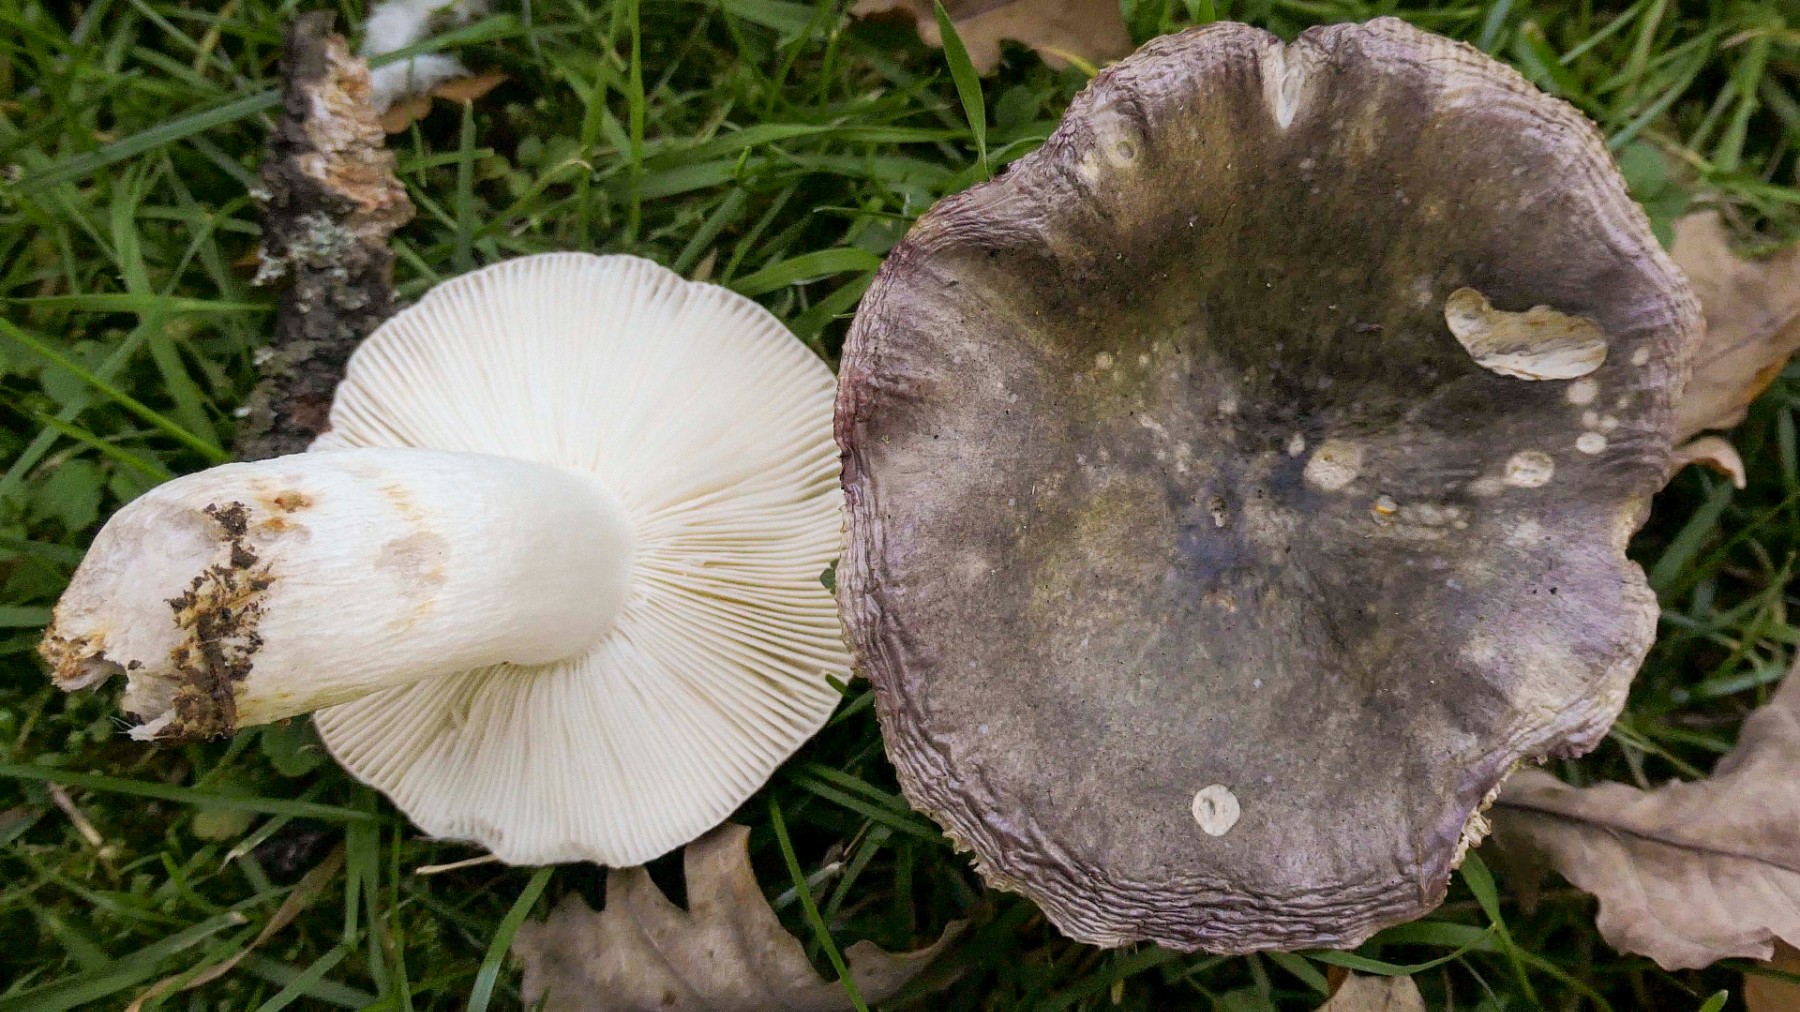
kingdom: Fungi
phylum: Basidiomycota
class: Agaricomycetes
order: Russulales
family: Russulaceae
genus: Russula
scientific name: Russula ionochlora
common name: violetgrøn skørhat
